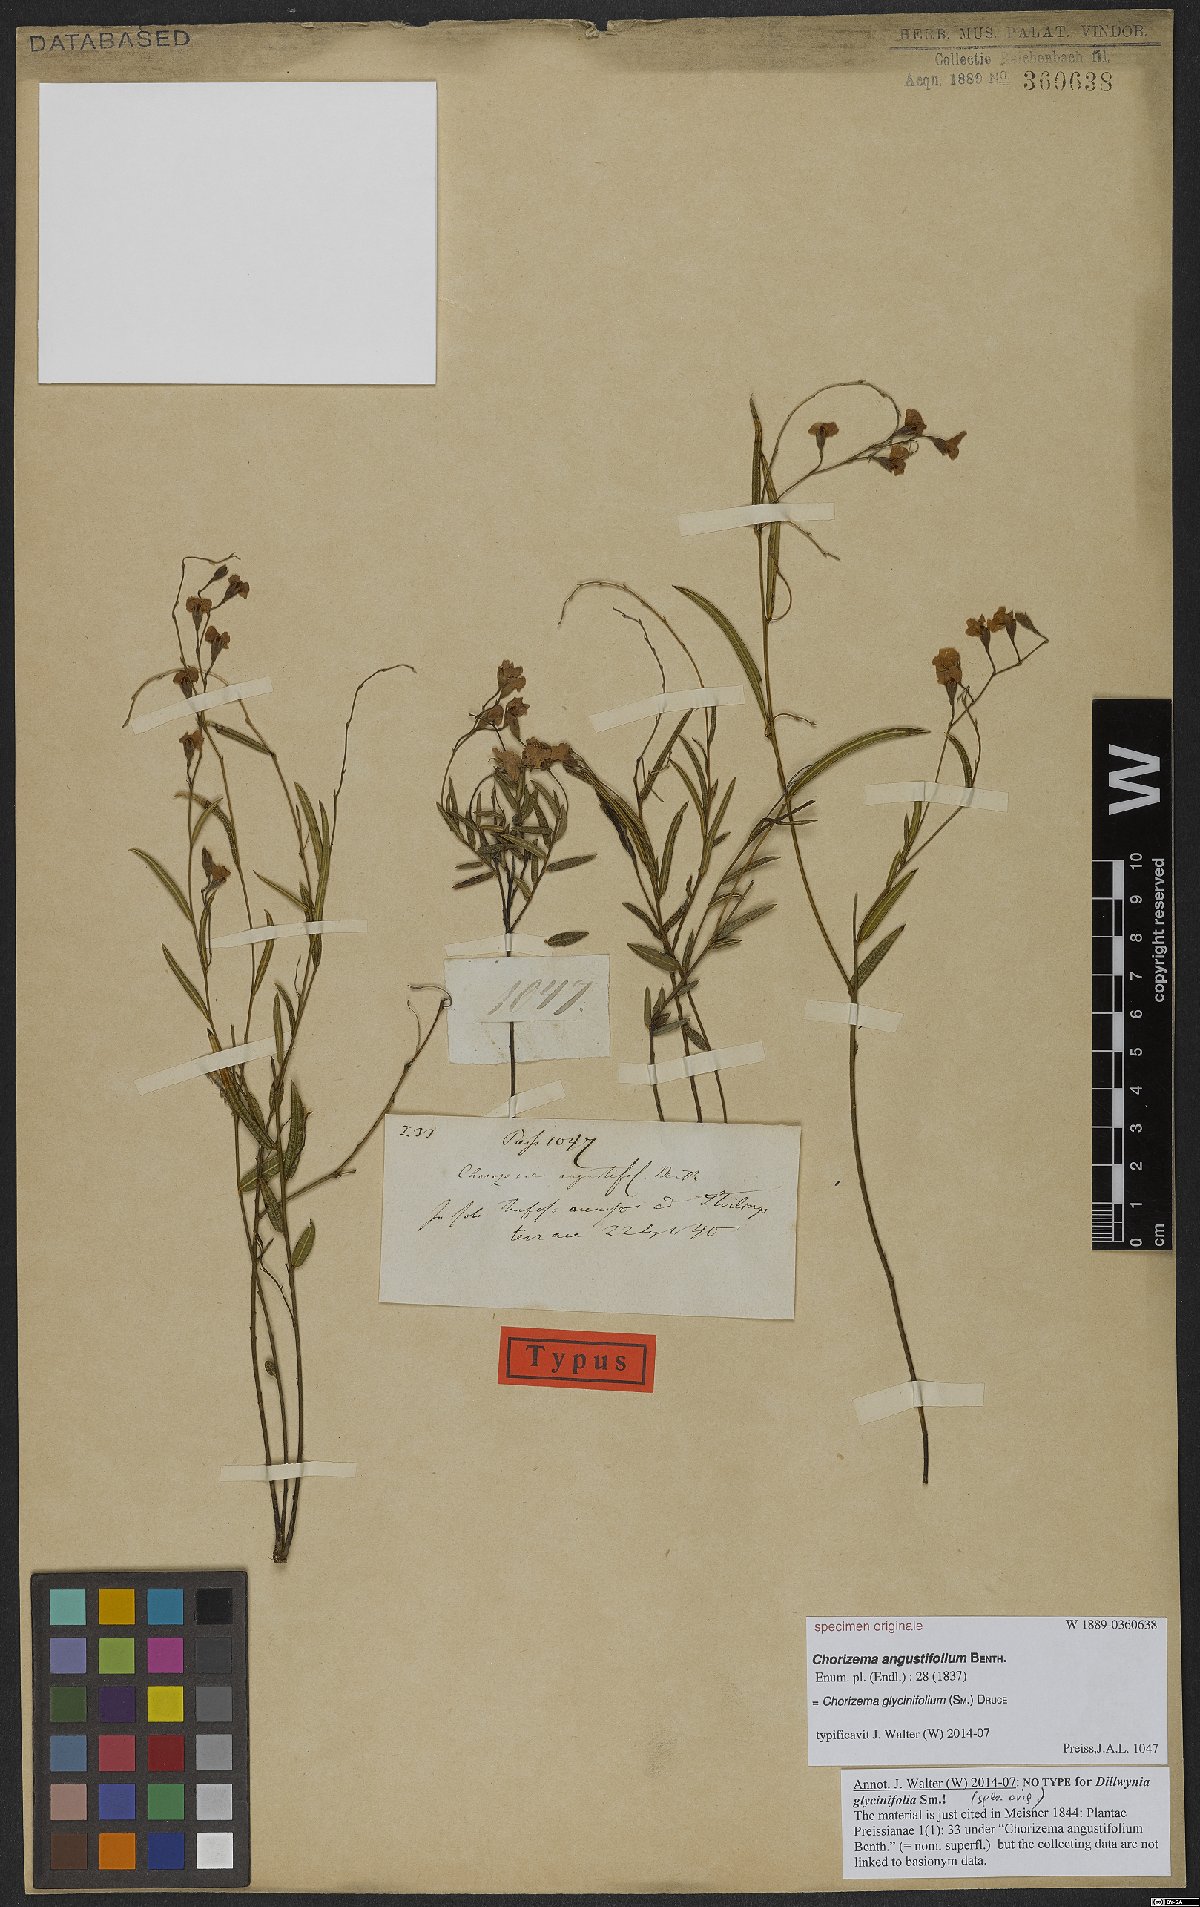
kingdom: Plantae
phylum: Tracheophyta
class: Magnoliopsida
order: Fabales
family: Fabaceae
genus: Chorizema
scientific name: Chorizema glycinifolium
